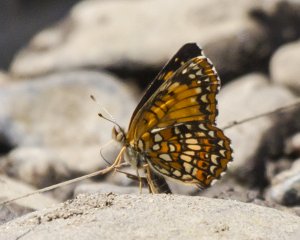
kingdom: Animalia
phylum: Arthropoda
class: Insecta
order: Lepidoptera
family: Nymphalidae
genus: Chlosyne
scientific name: Chlosyne harrisii
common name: Harris's Checkerspot
